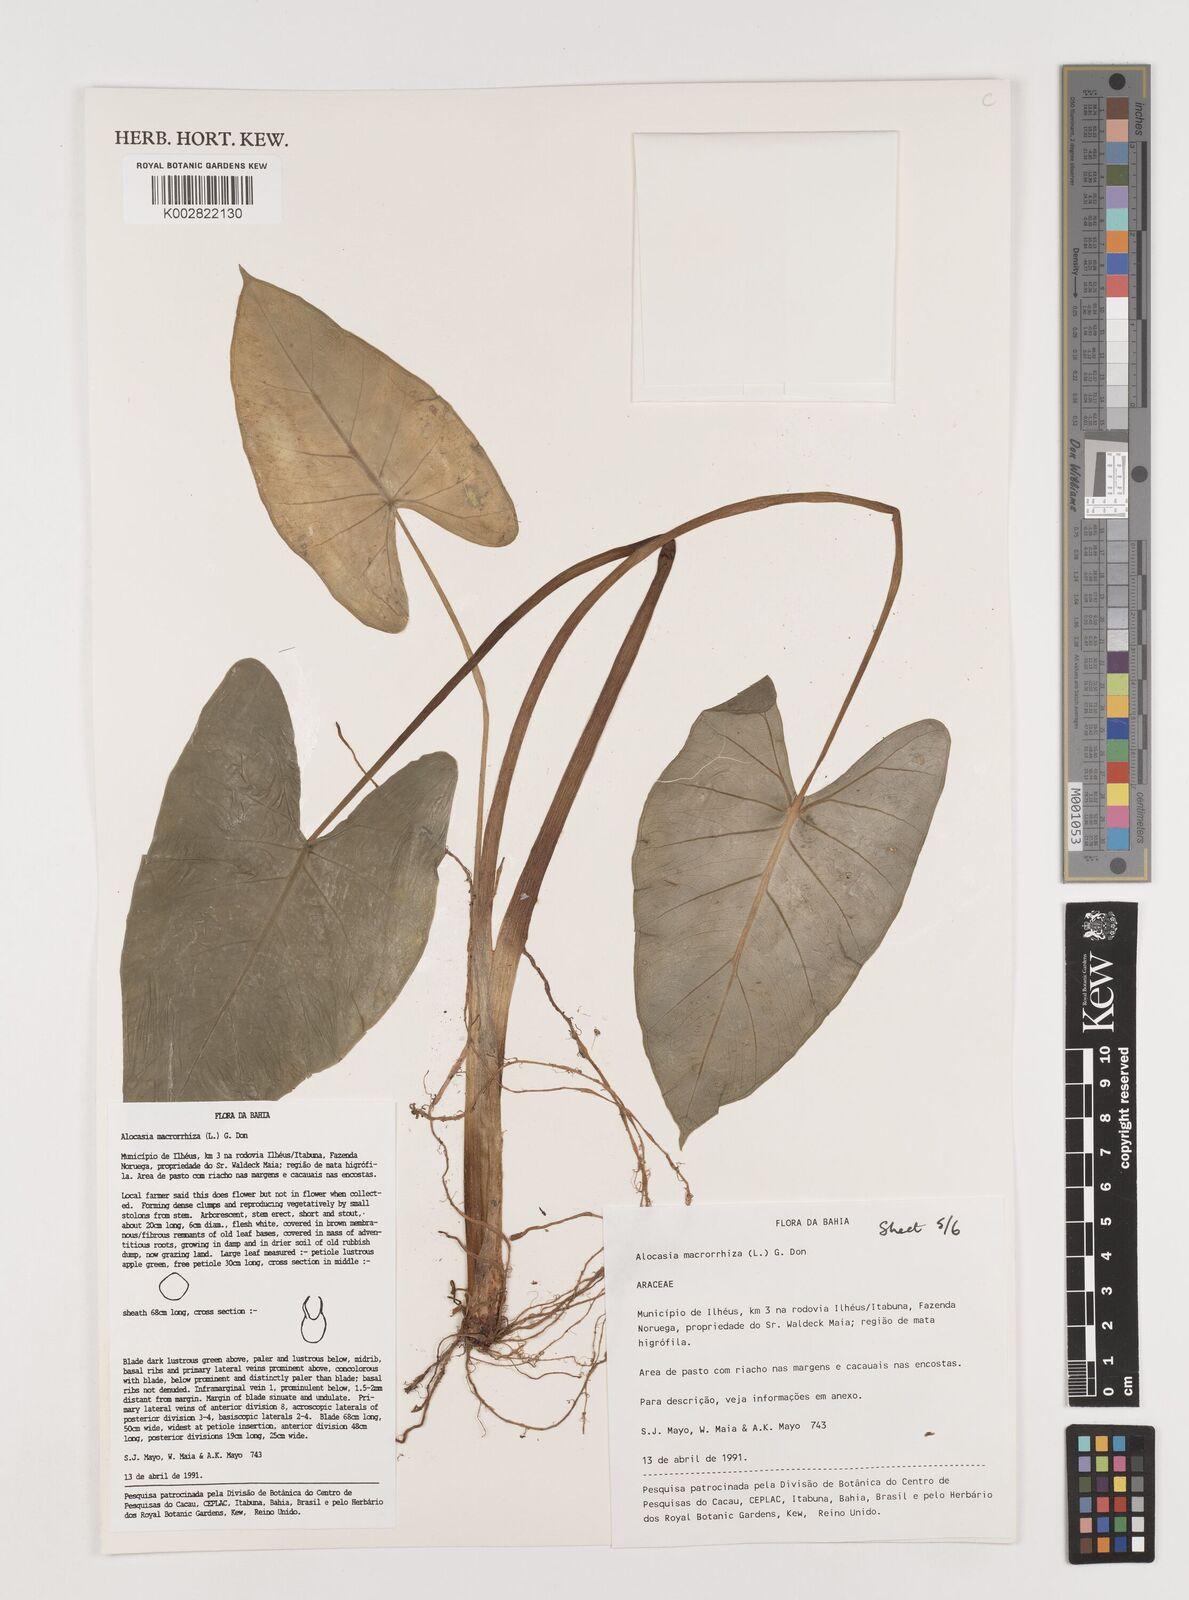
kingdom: Plantae
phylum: Tracheophyta
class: Liliopsida
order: Alismatales
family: Araceae
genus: Alocasia
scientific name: Alocasia macrorrhizos
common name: Giant taro
